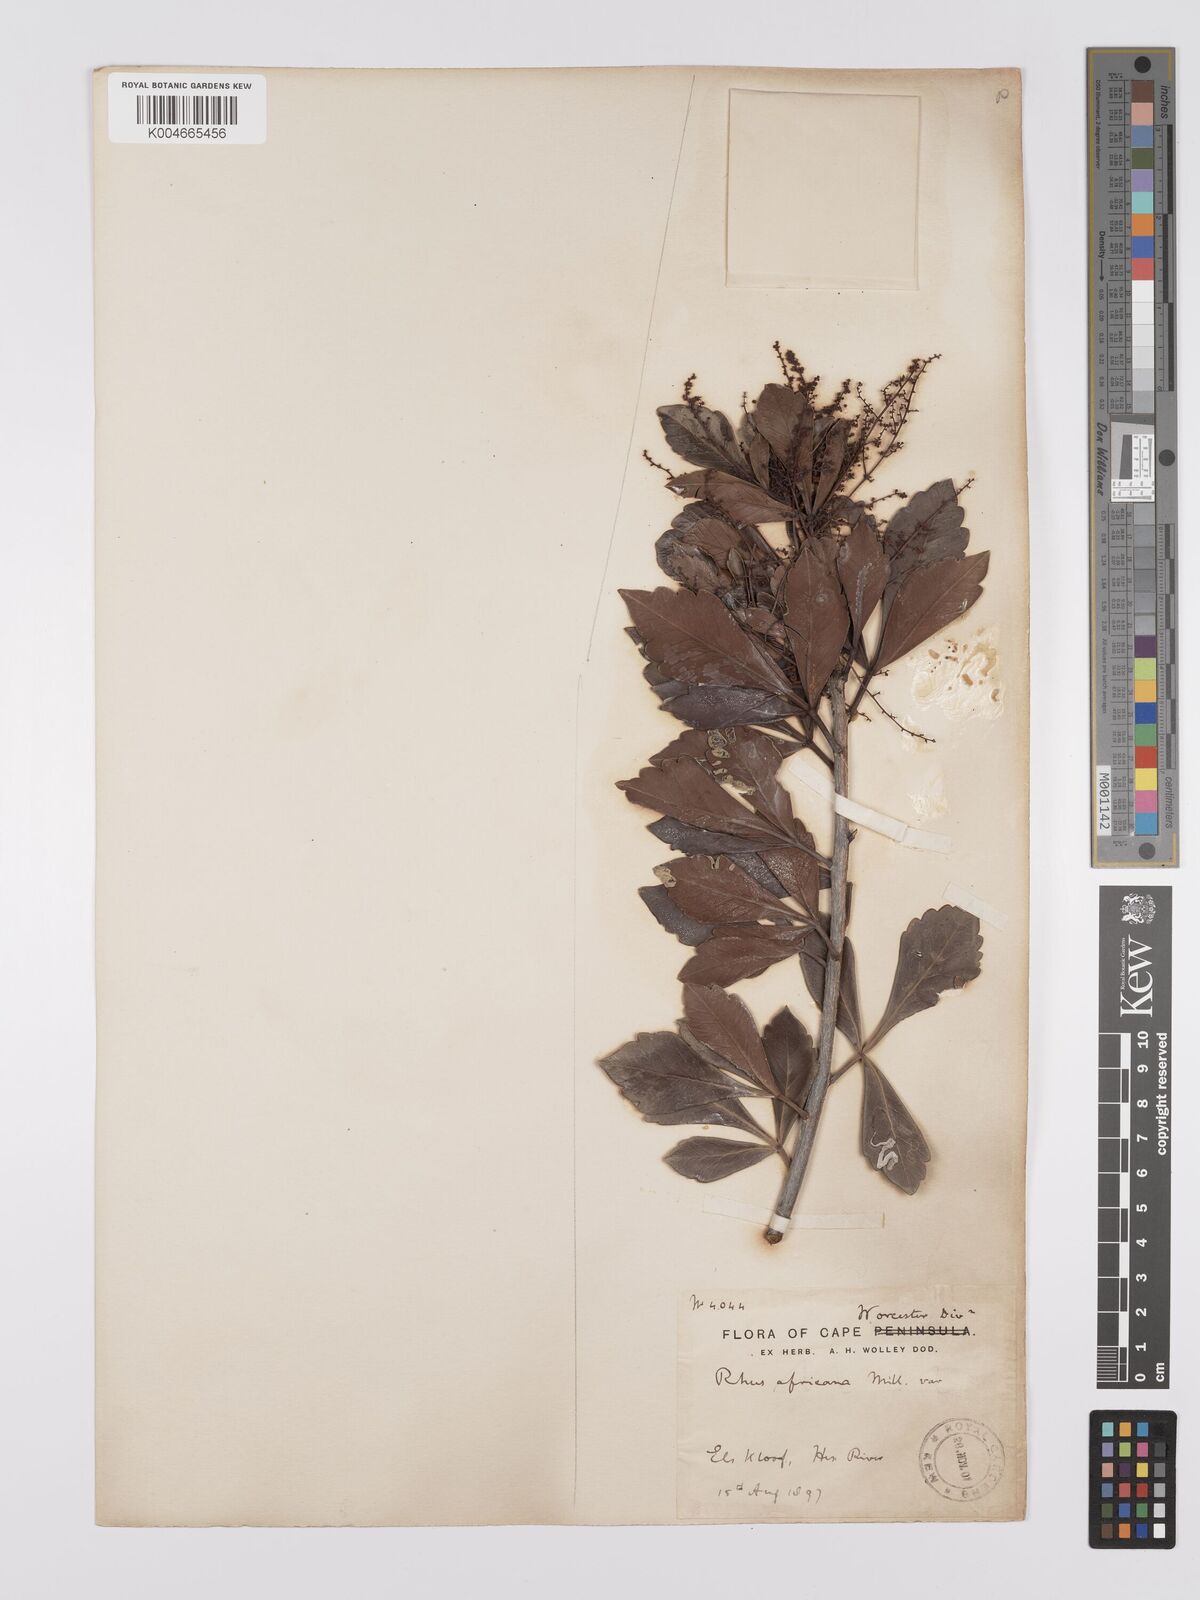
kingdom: Plantae
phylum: Tracheophyta
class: Magnoliopsida
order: Sapindales
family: Anacardiaceae
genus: Searsia
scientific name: Searsia lucida
